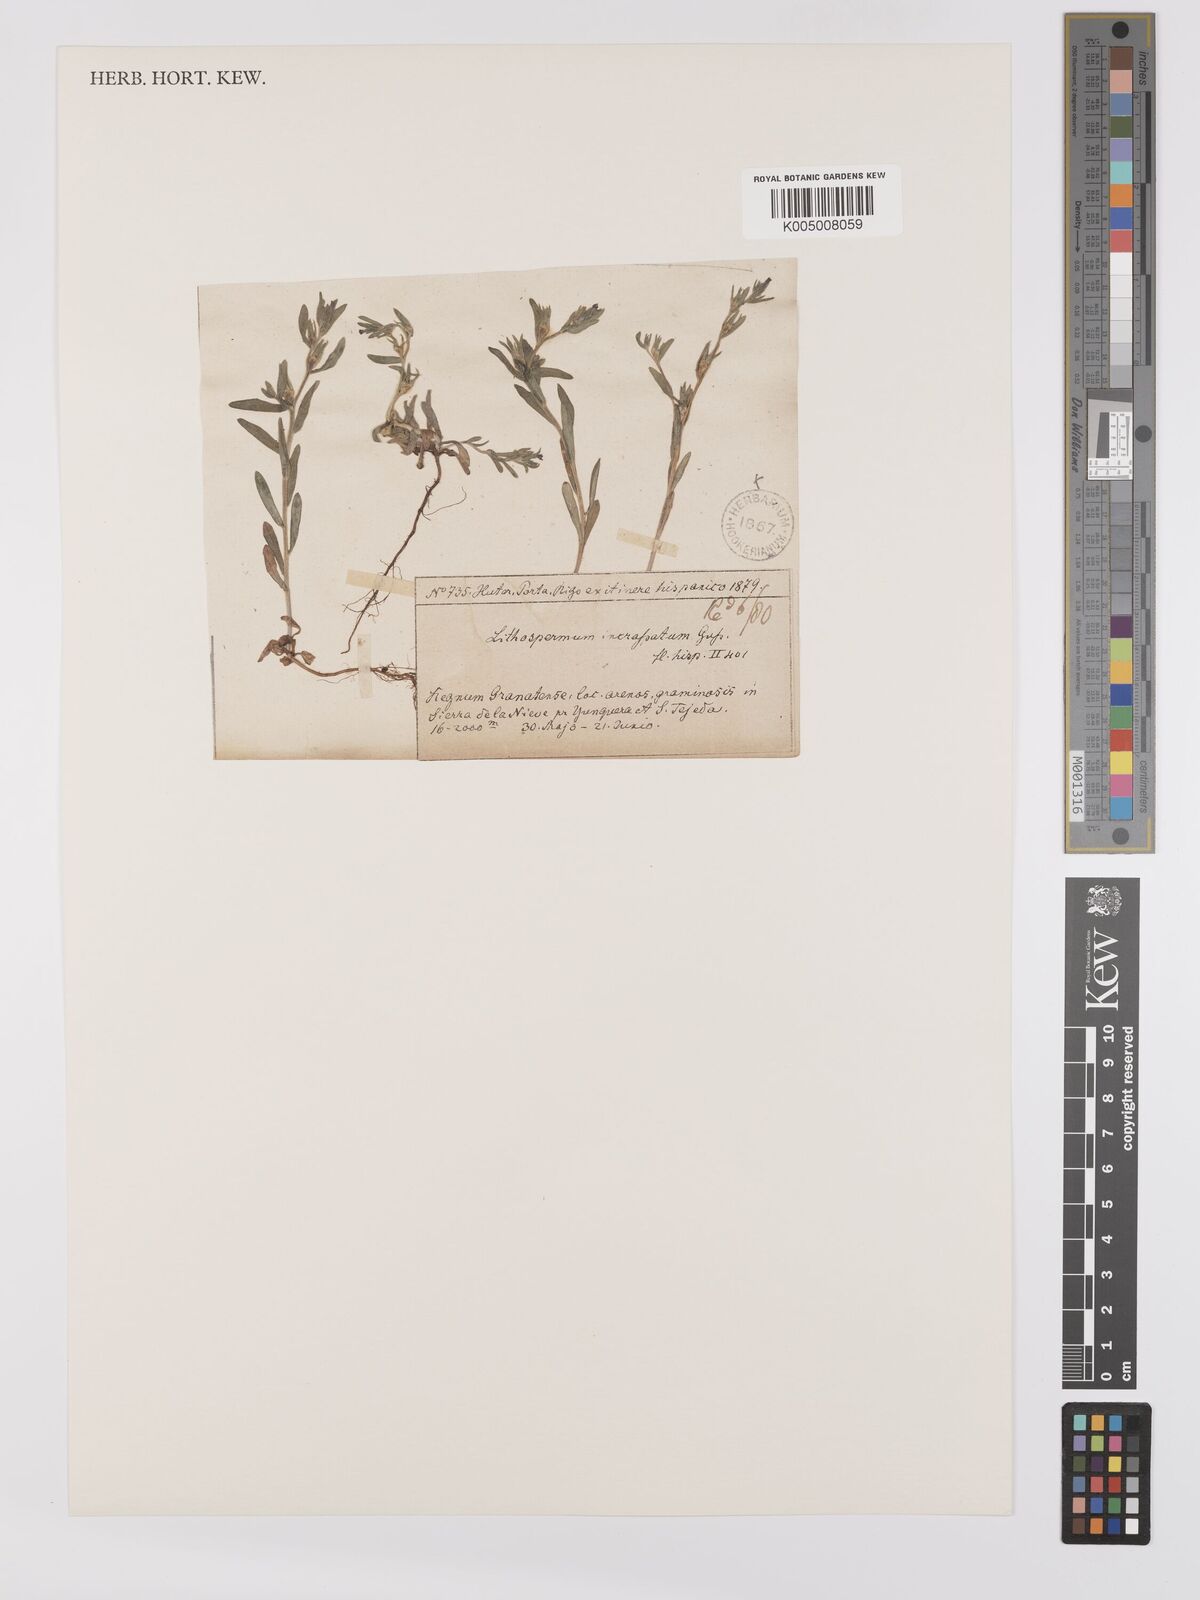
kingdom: Plantae
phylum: Tracheophyta
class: Magnoliopsida
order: Boraginales
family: Boraginaceae
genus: Buglossoides
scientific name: Buglossoides incrassata
